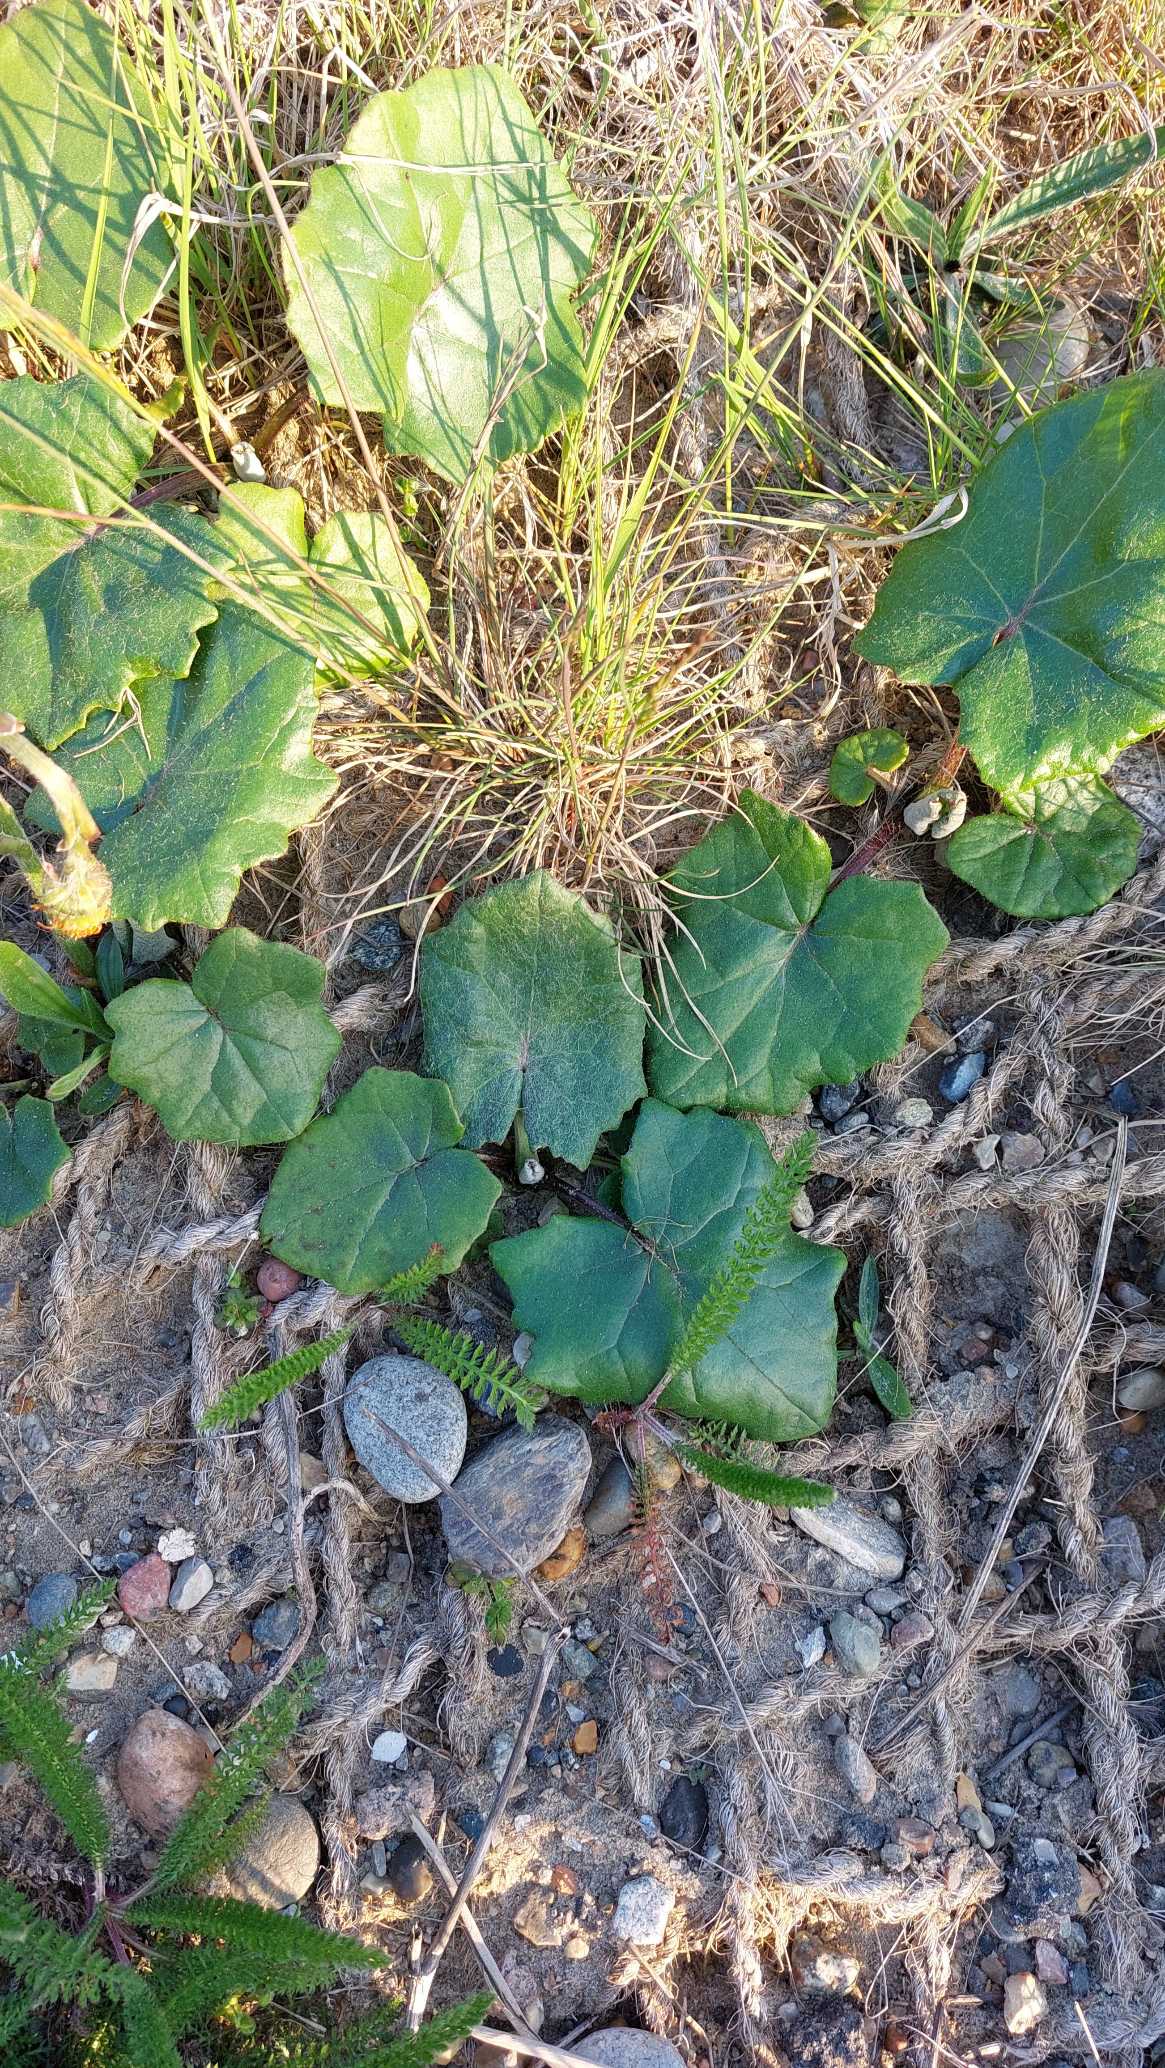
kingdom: Plantae
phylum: Tracheophyta
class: Magnoliopsida
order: Asterales
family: Asteraceae
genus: Tussilago
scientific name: Tussilago farfara
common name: Følfod
